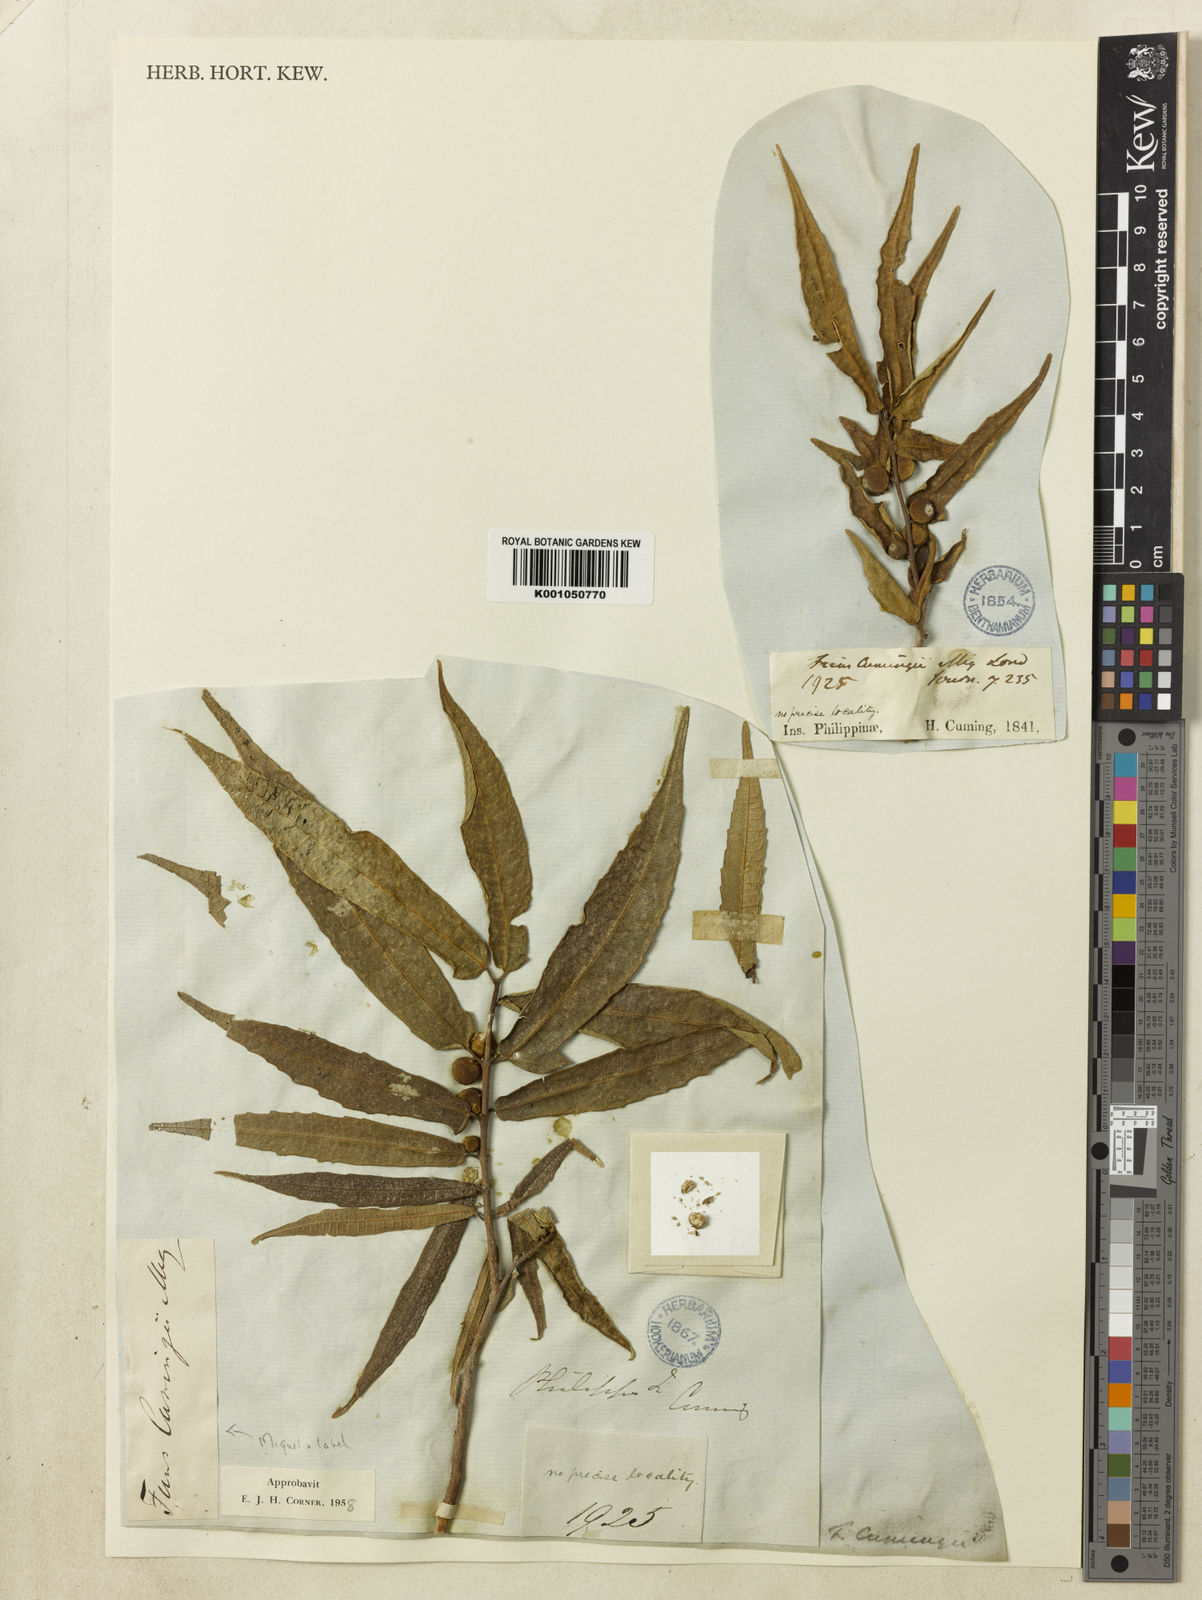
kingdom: Plantae
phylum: Tracheophyta
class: Magnoliopsida
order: Rosales
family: Moraceae
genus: Ficus
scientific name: Ficus cumingii
